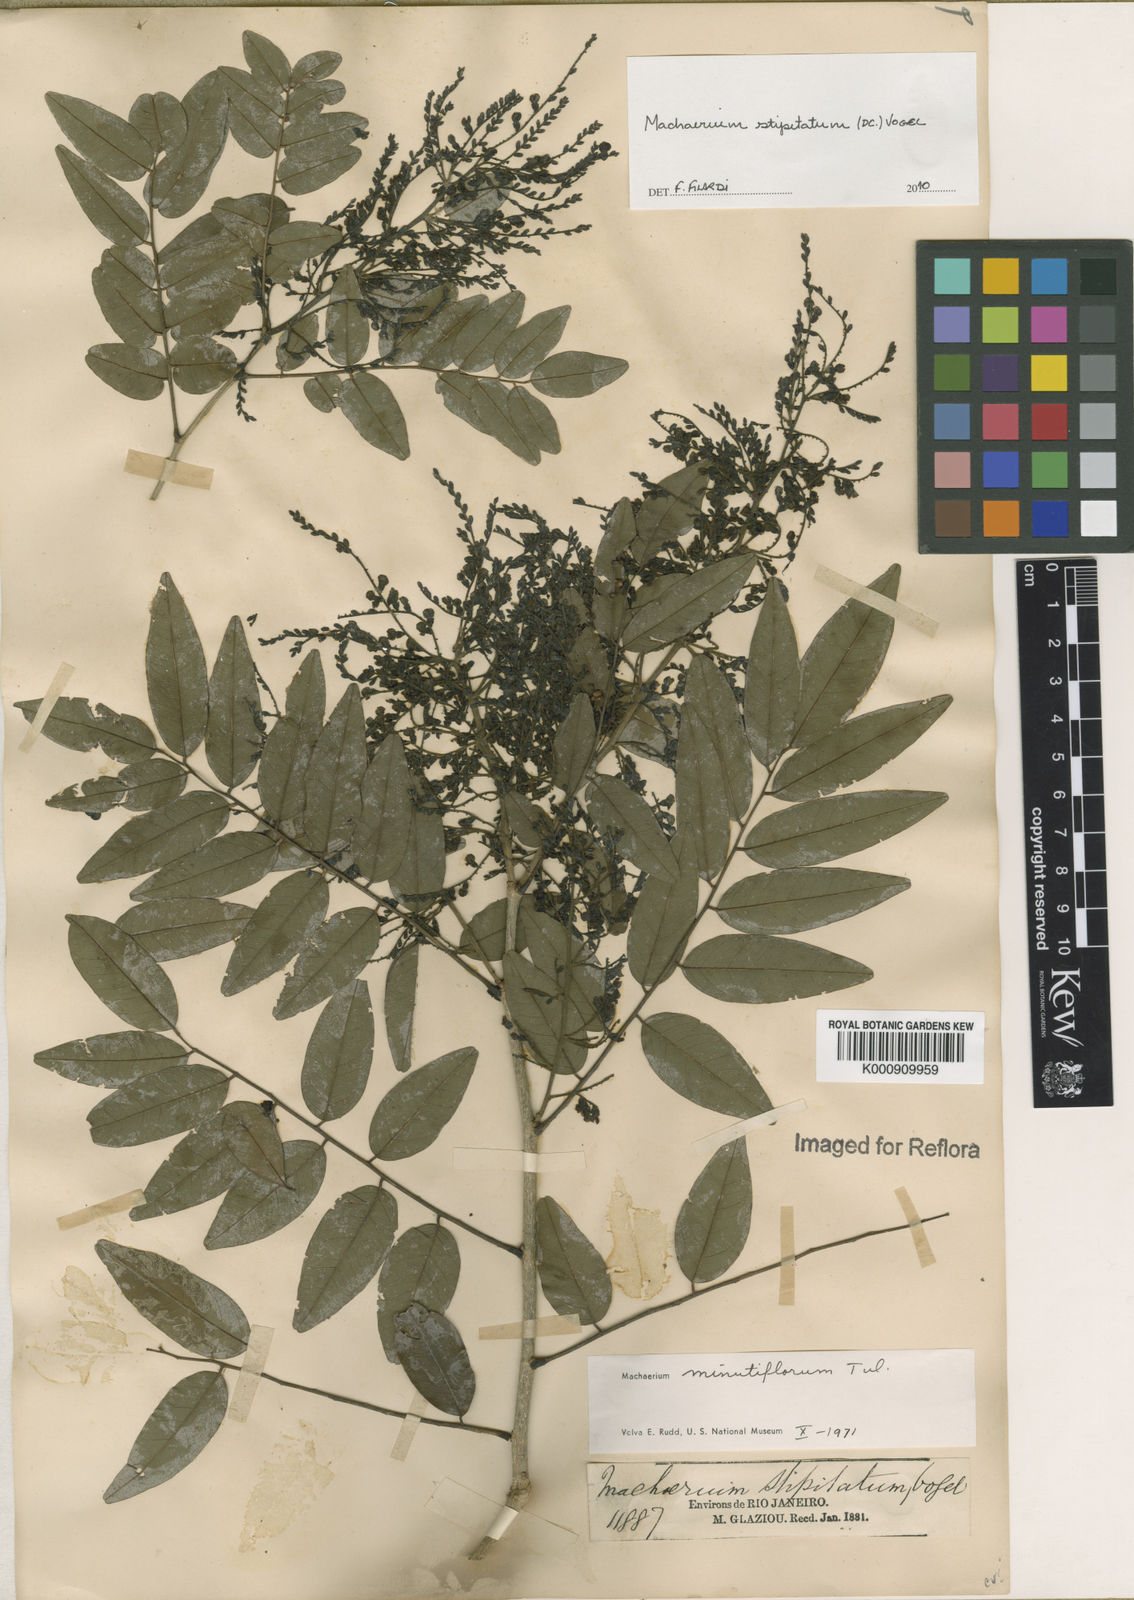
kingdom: Plantae
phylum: Tracheophyta
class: Magnoliopsida
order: Fabales
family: Fabaceae
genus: Machaerium
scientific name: Machaerium stipitatum
